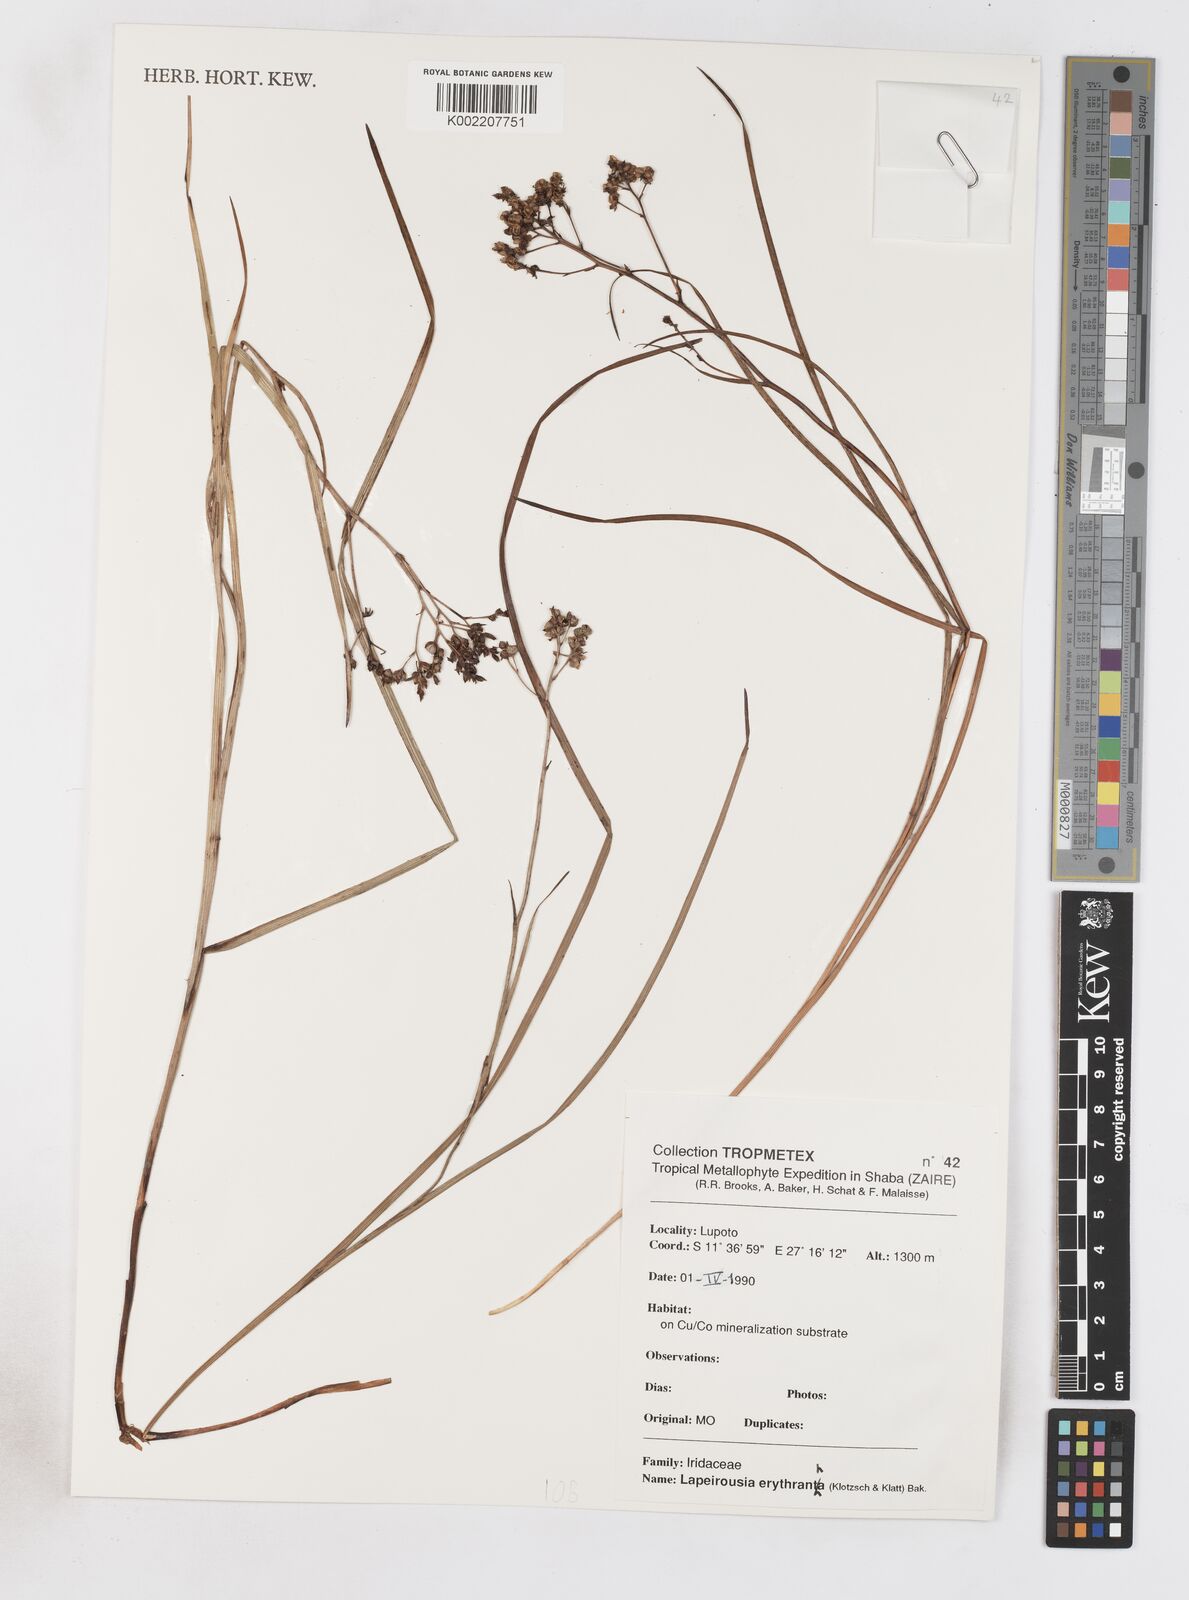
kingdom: Plantae
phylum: Tracheophyta
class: Liliopsida
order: Asparagales
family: Iridaceae
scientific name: Iridaceae
